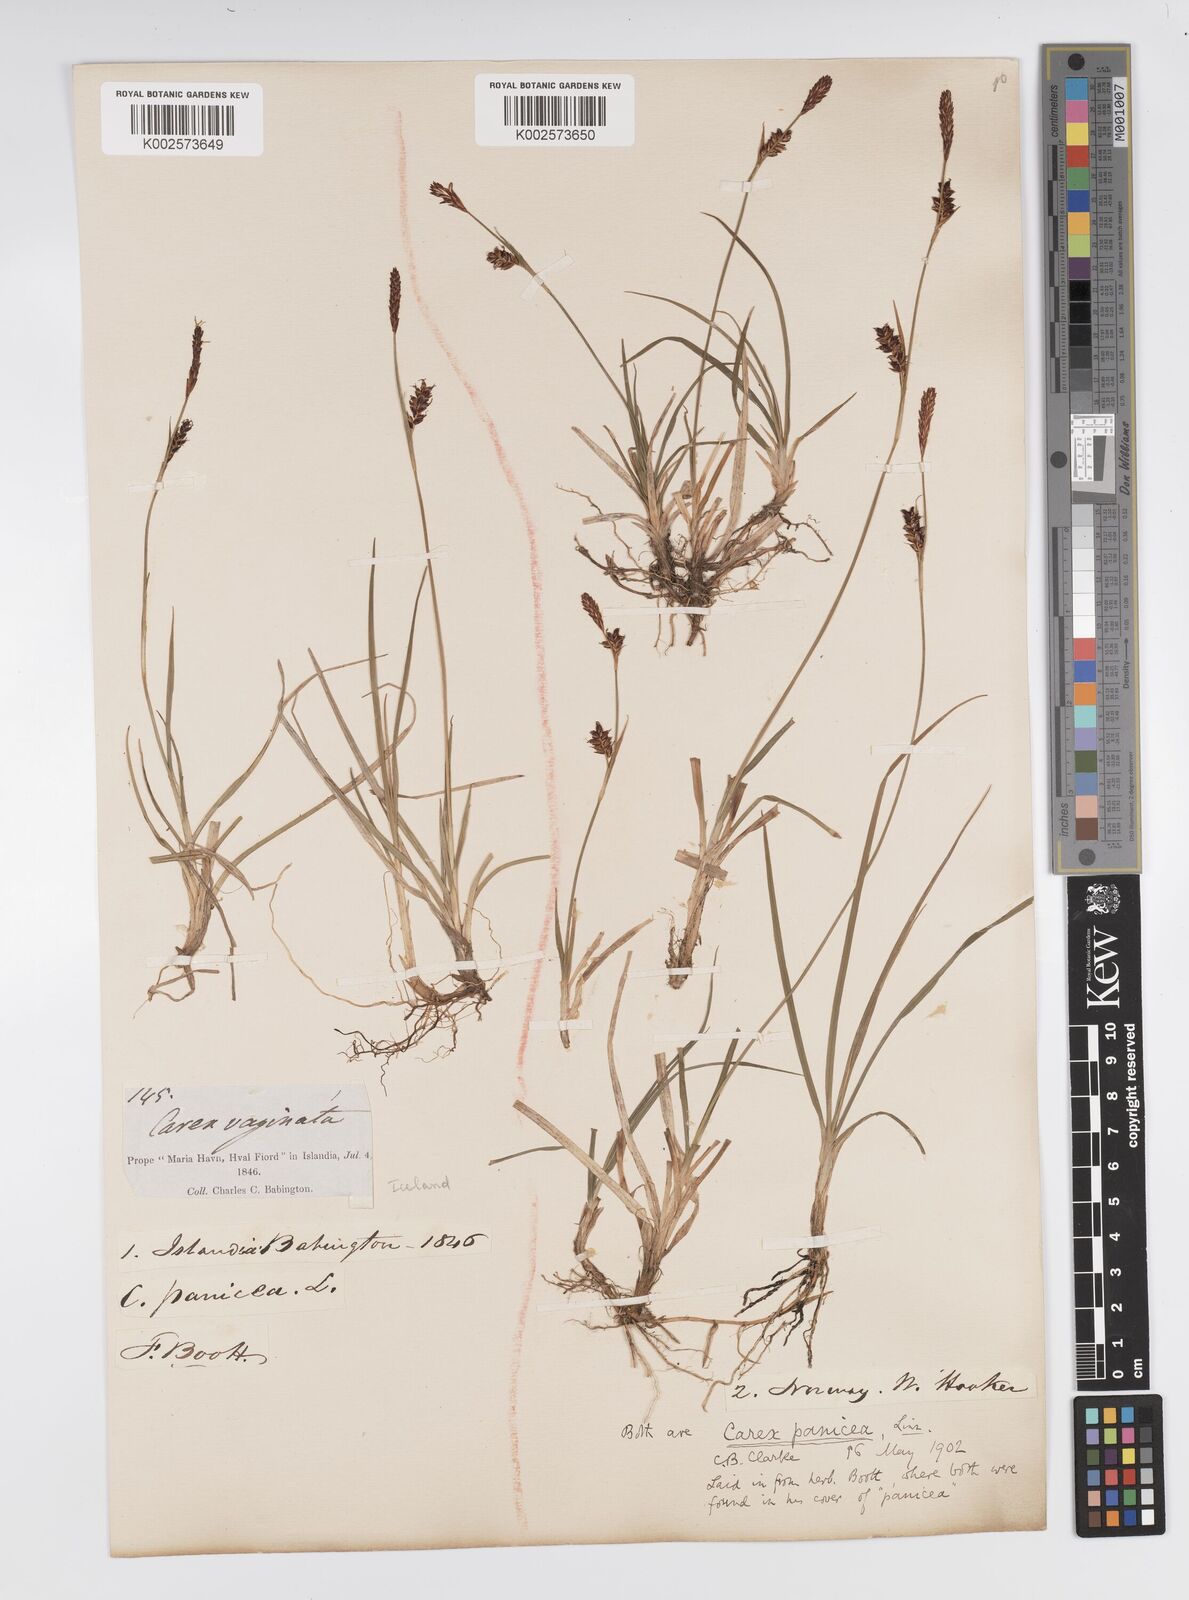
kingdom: Plantae
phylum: Tracheophyta
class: Liliopsida
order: Poales
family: Cyperaceae
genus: Carex
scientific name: Carex panicea
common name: Carnation sedge
